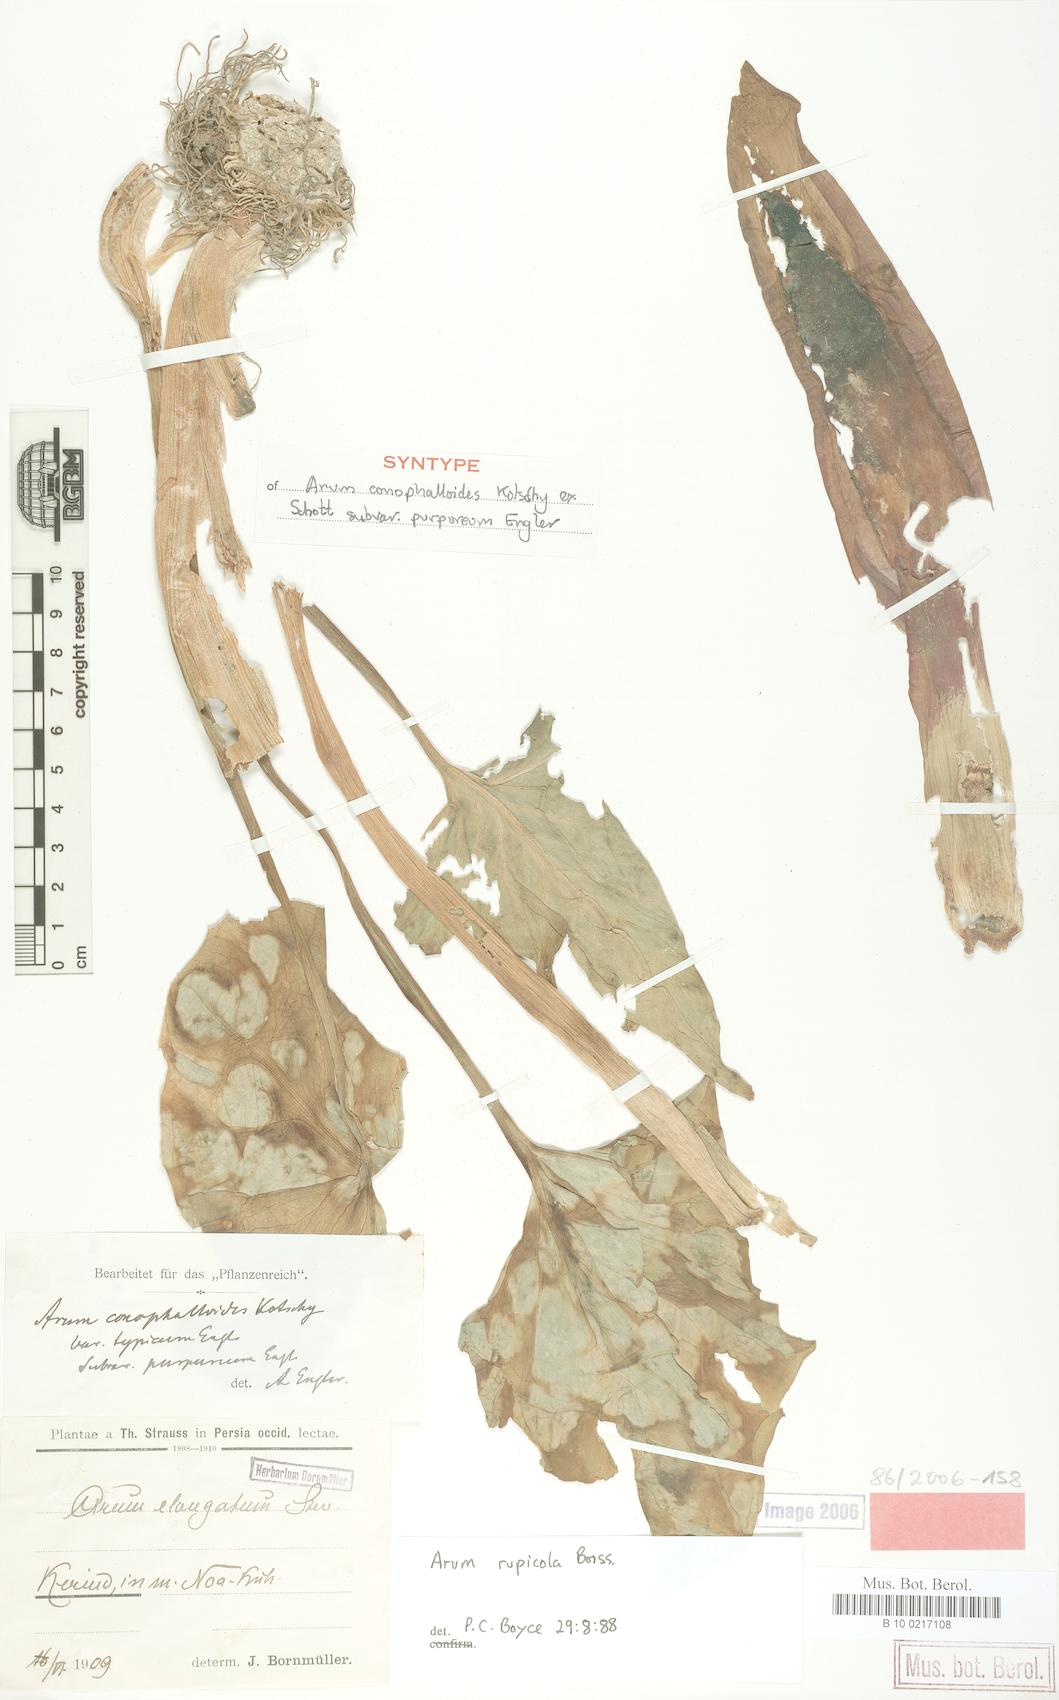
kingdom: Plantae
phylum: Tracheophyta
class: Liliopsida
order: Alismatales
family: Araceae
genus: Arum
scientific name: Arum rupicola
